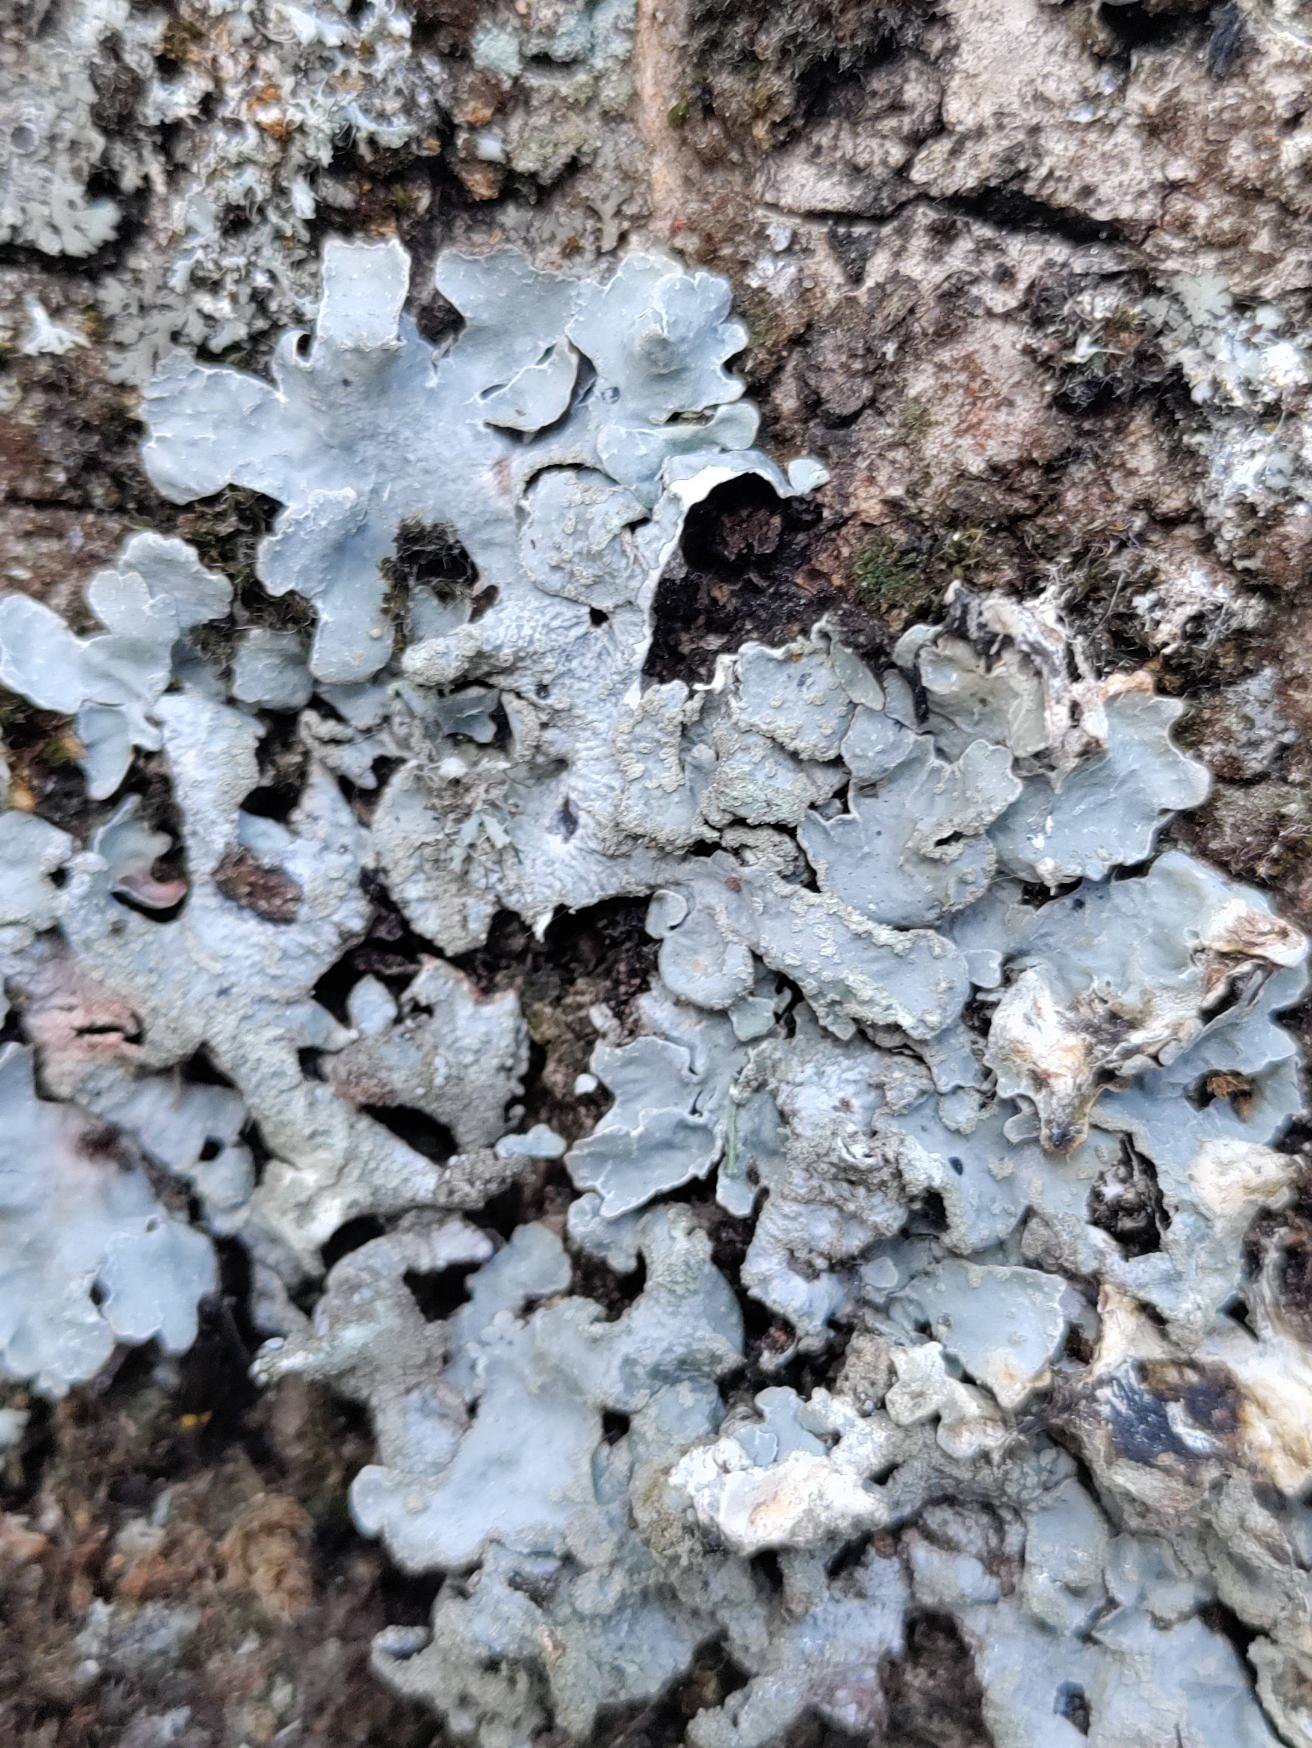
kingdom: Fungi
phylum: Ascomycota
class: Lecanoromycetes
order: Lecanorales
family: Parmeliaceae
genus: Parmelia
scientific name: Parmelia sulcata
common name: Rynket skållav
